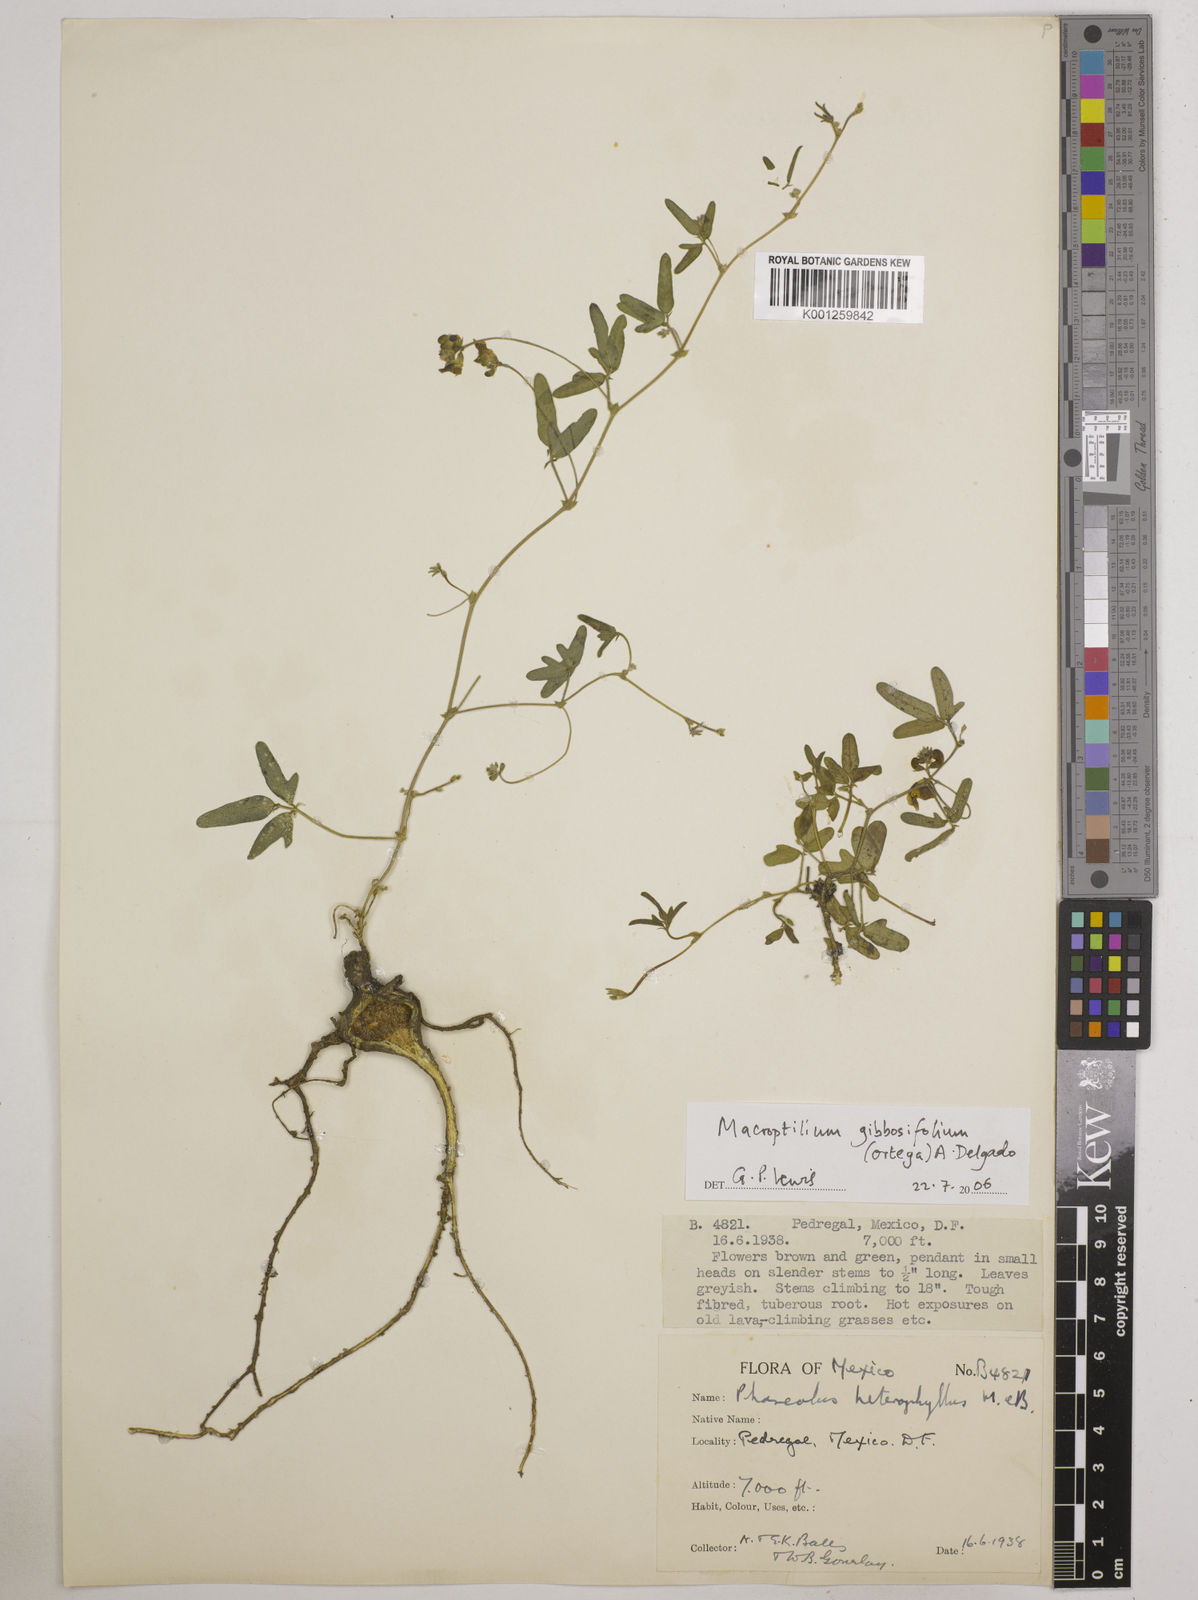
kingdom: Plantae
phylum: Tracheophyta
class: Magnoliopsida
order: Fabales
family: Fabaceae
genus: Macroptilium
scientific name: Macroptilium gibbosifolium
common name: Variableleaf bushbean
